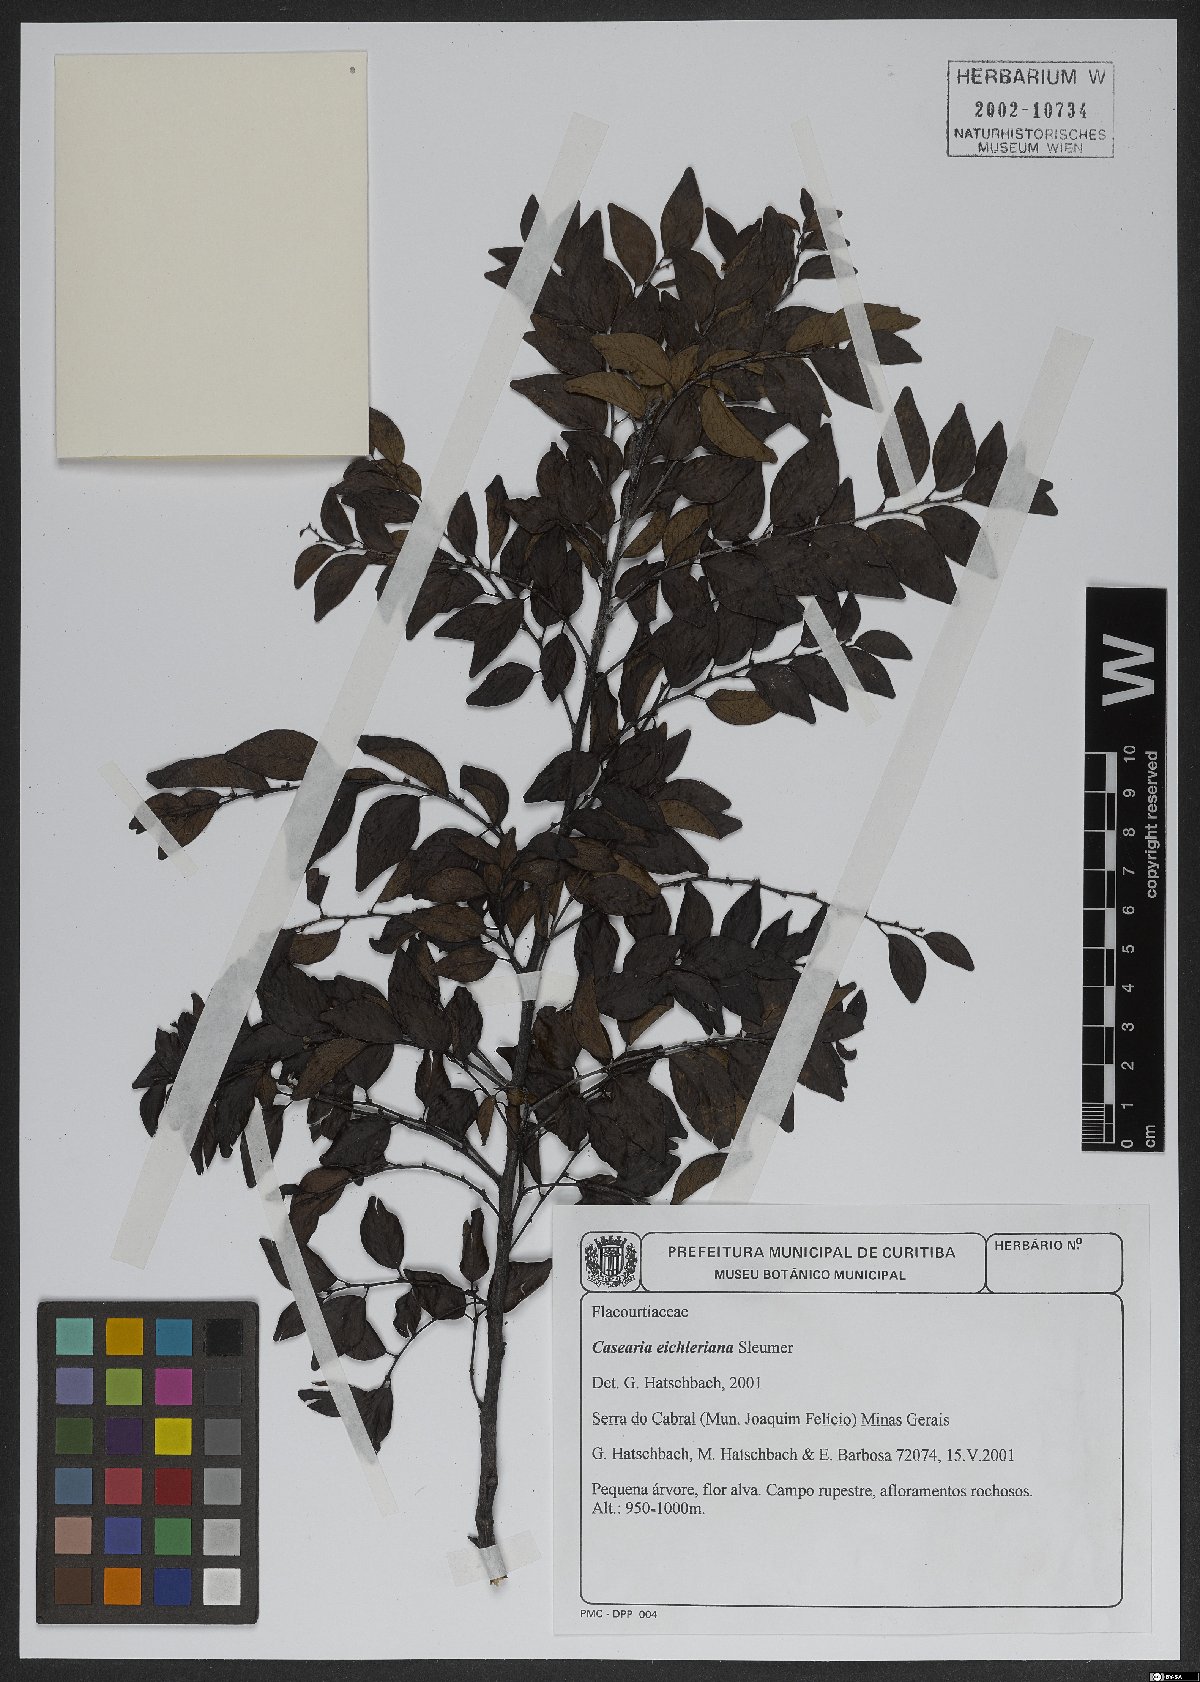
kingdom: Plantae
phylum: Tracheophyta
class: Magnoliopsida
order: Malpighiales
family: Salicaceae
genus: Casearia
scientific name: Casearia eichleriana
